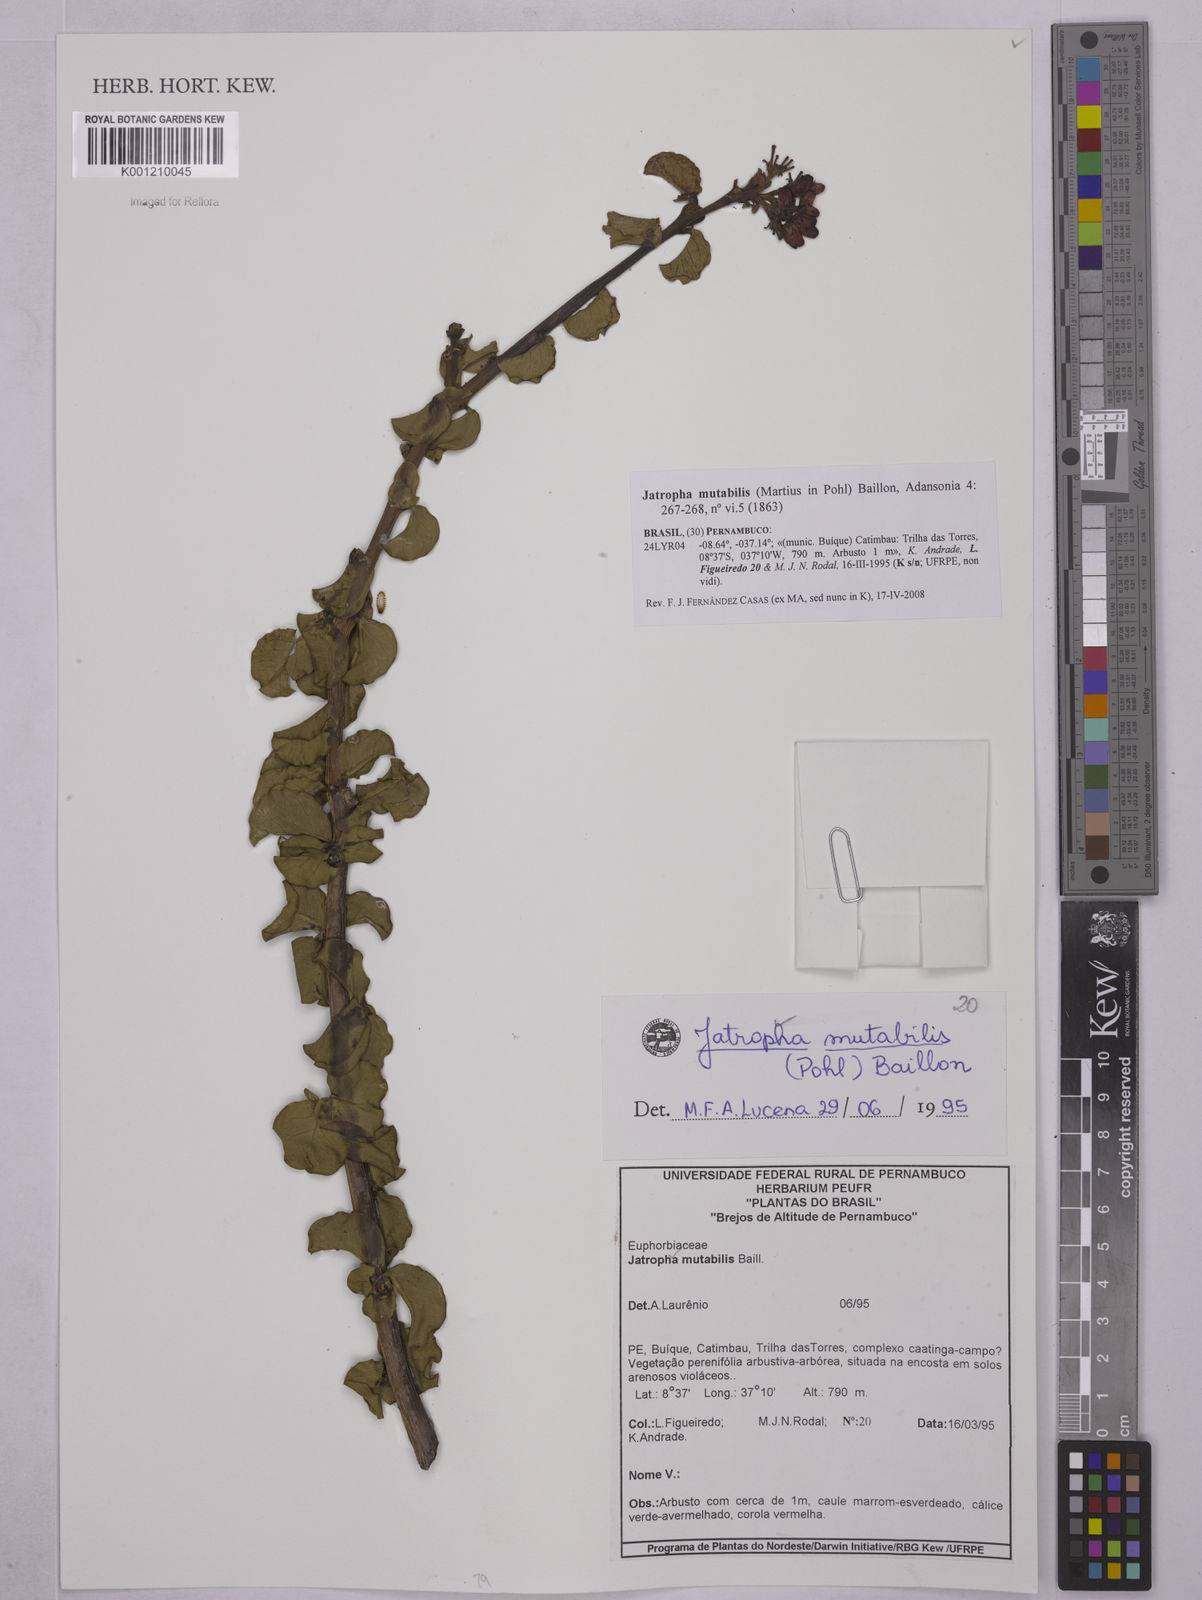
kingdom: Plantae
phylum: Tracheophyta
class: Magnoliopsida
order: Malpighiales
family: Euphorbiaceae
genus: Jatropha
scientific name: Jatropha mutabilis
